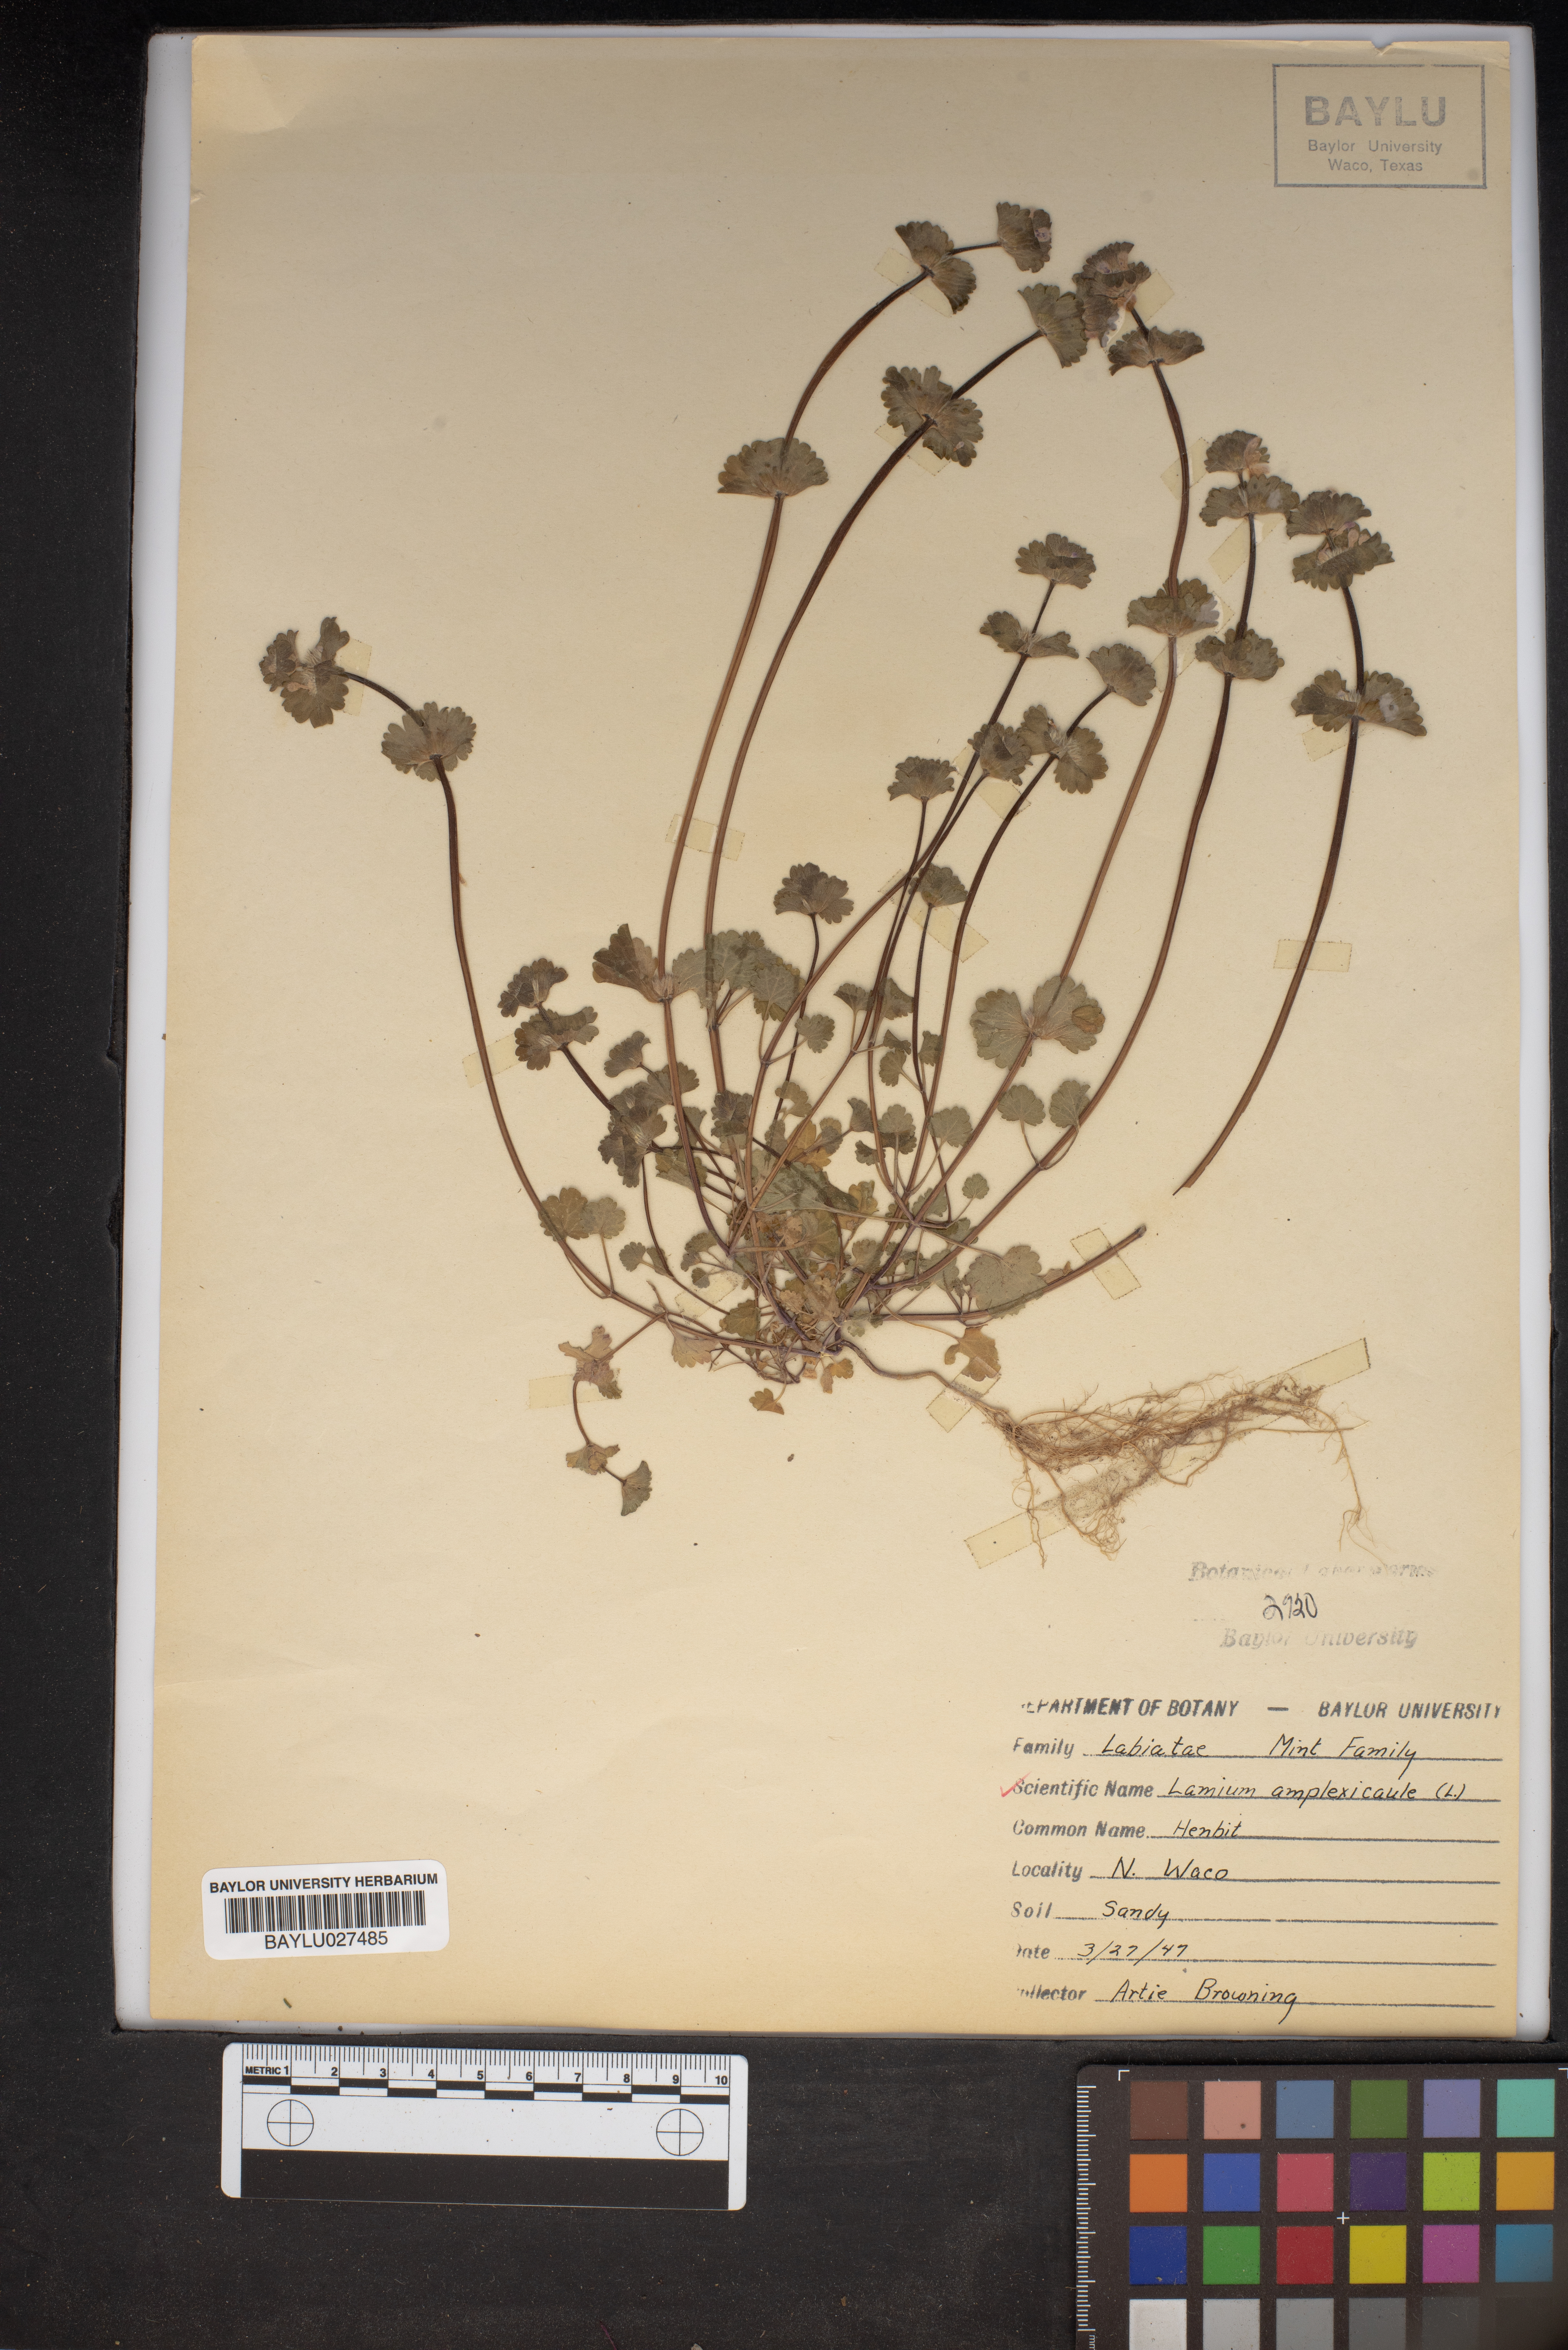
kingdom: Plantae
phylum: Tracheophyta
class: Magnoliopsida
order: Lamiales
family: Lamiaceae
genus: Lamium
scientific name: Lamium amplexicaule
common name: Henbit dead-nettle
